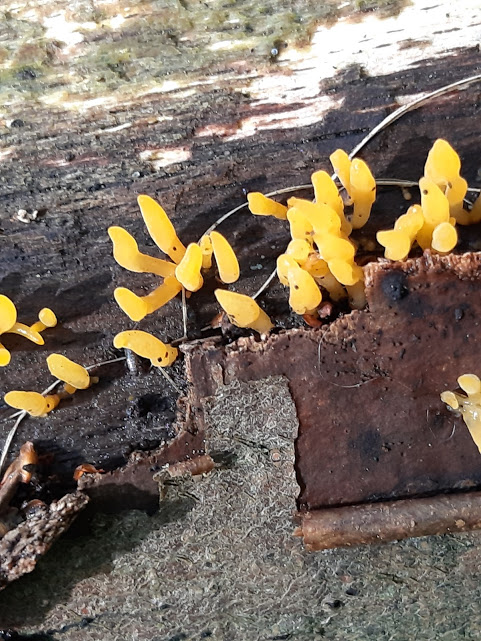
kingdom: Fungi
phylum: Basidiomycota
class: Dacrymycetes
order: Dacrymycetales
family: Dacrymycetaceae
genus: Calocera
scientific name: Calocera cornea
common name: liden guldgaffel
